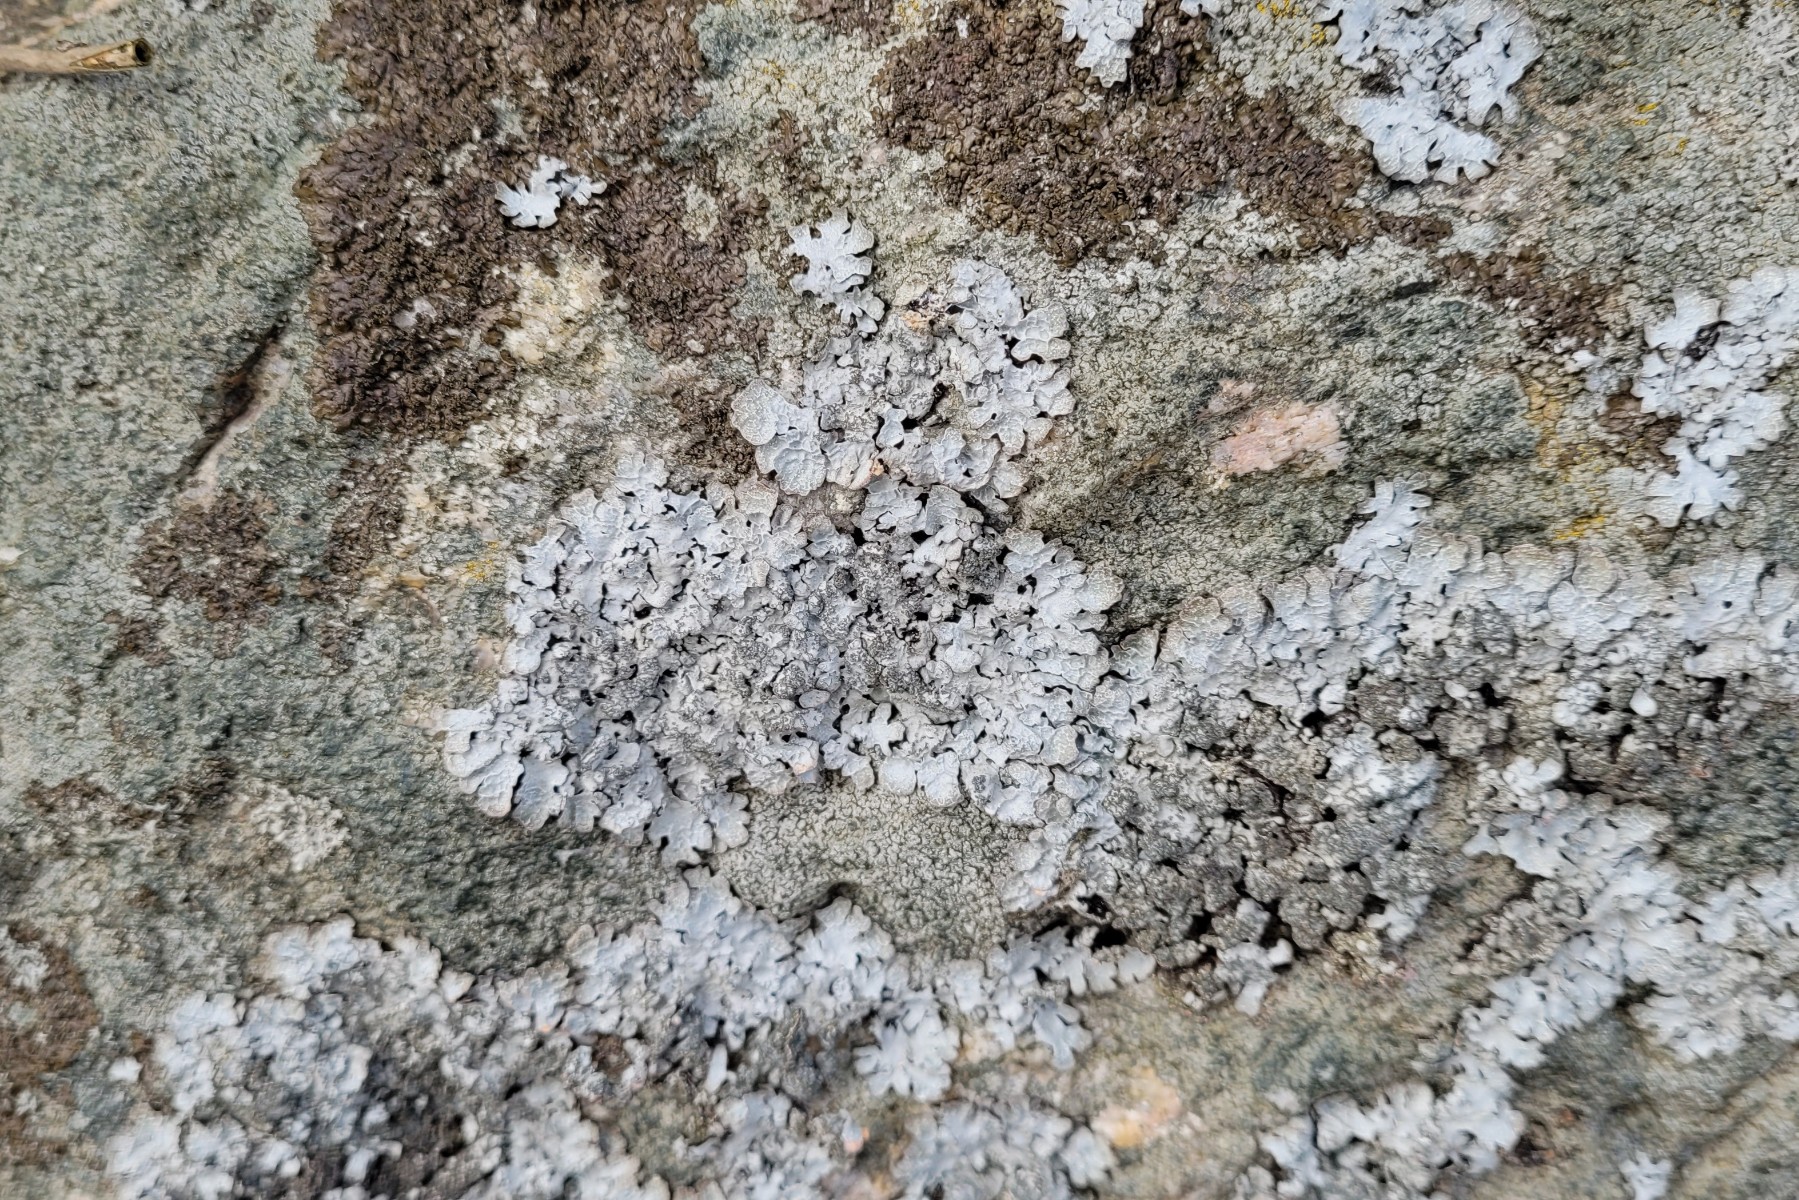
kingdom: Fungi
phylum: Ascomycota
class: Lecanoromycetes
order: Lecanorales
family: Parmeliaceae
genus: Parmelia
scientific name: Parmelia
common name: farve-skållav
